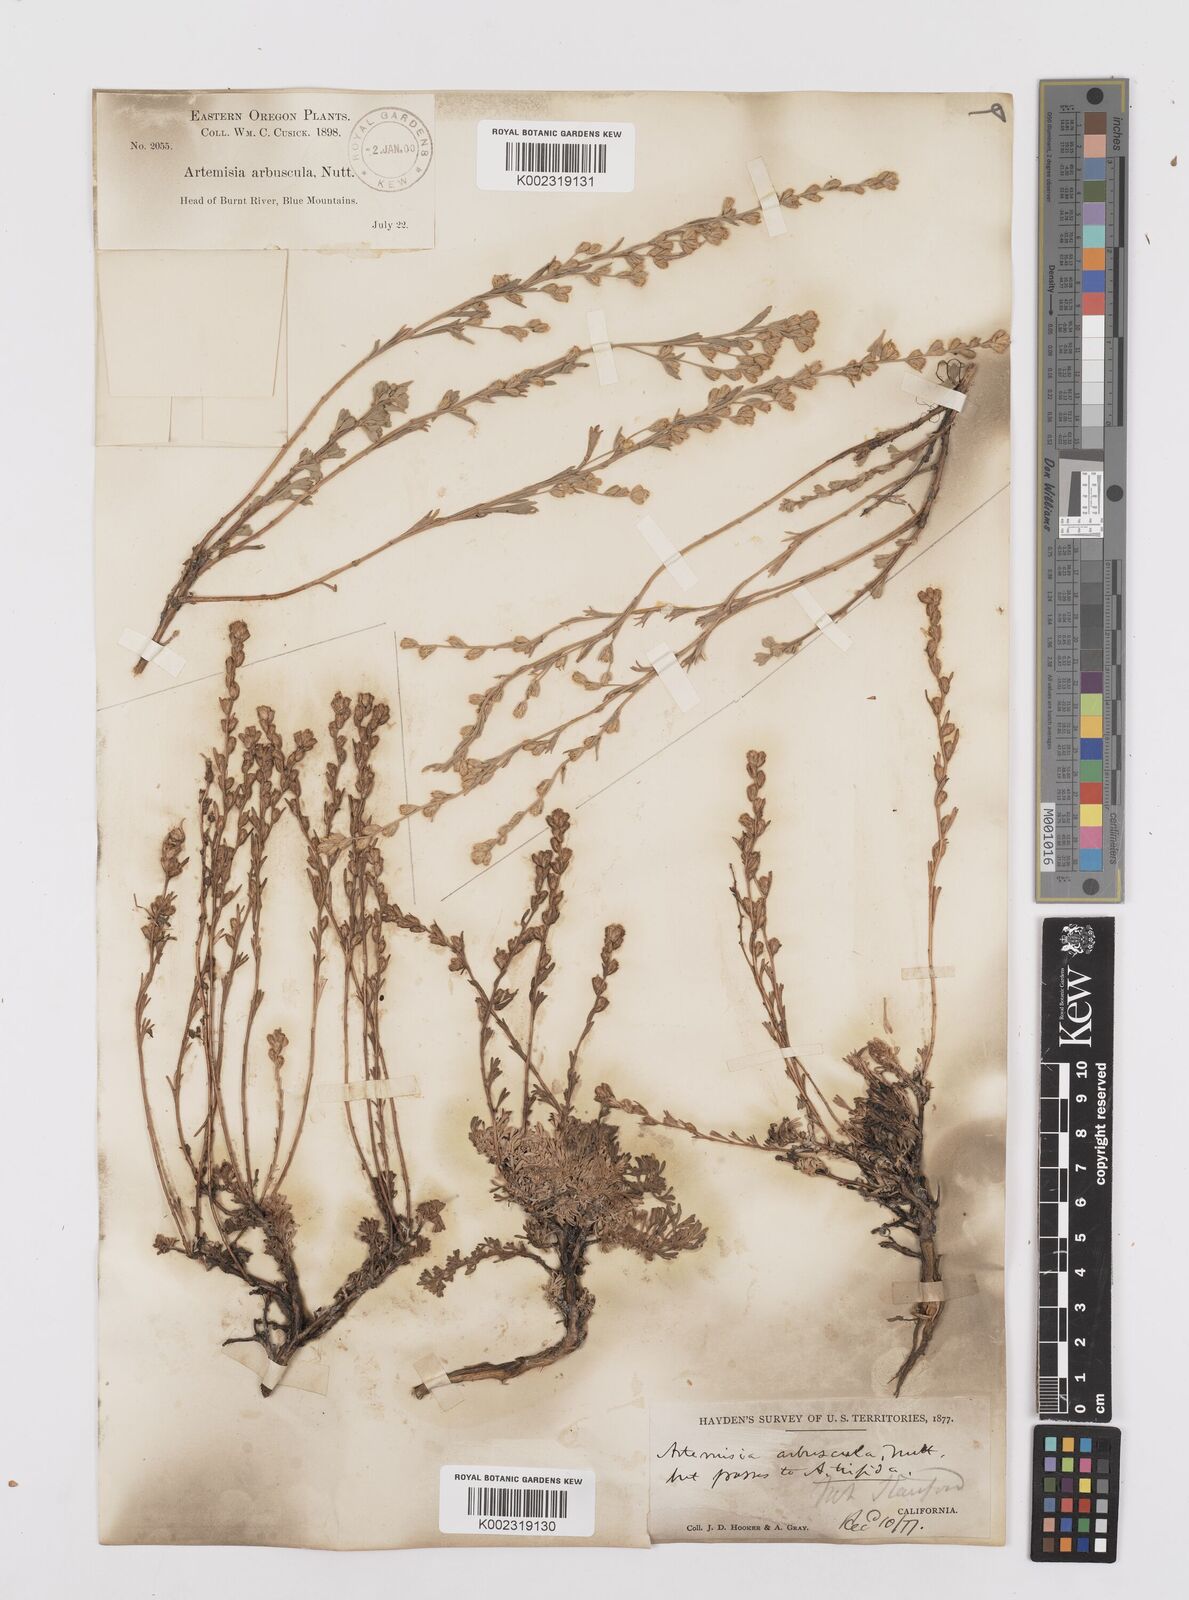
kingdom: Plantae
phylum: Tracheophyta
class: Magnoliopsida
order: Asterales
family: Asteraceae
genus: Artemisia
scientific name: Artemisia arbuscula
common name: Sagebrush
